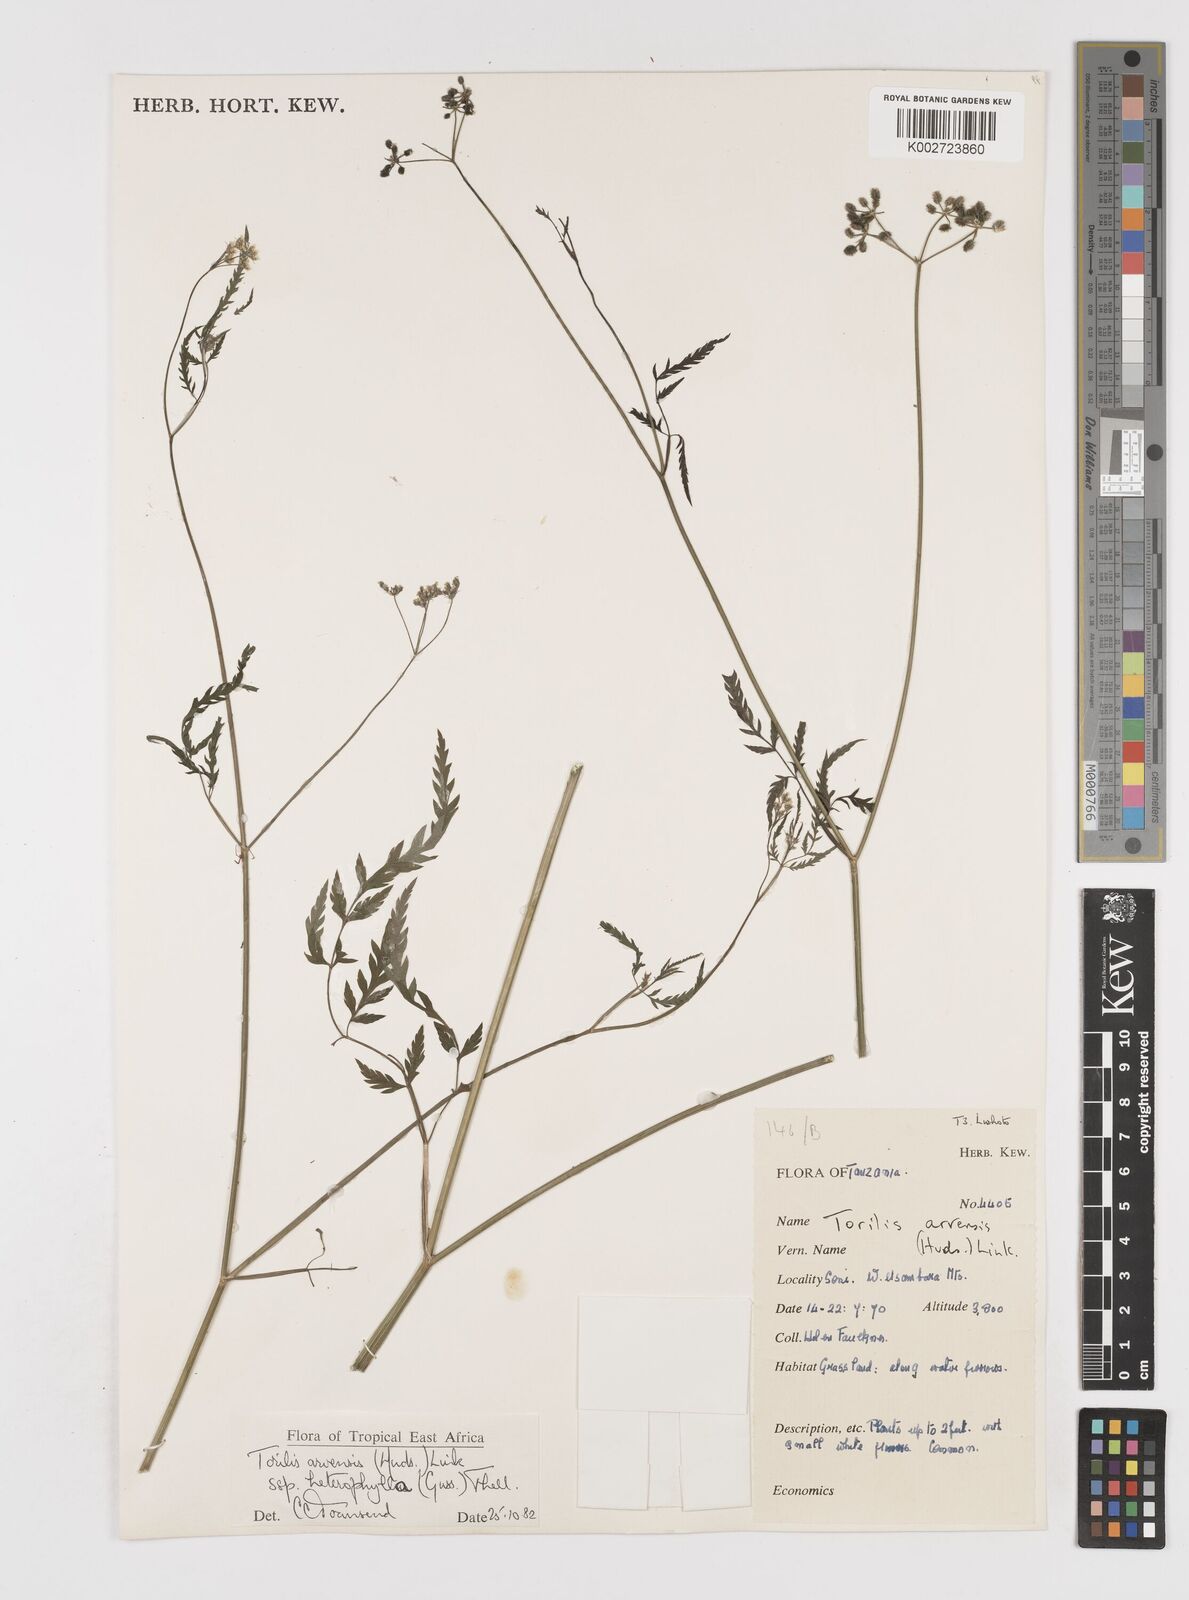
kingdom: Plantae
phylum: Tracheophyta
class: Magnoliopsida
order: Apiales
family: Apiaceae
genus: Torilis
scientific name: Torilis arvensis
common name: Spreading hedge-parsley
